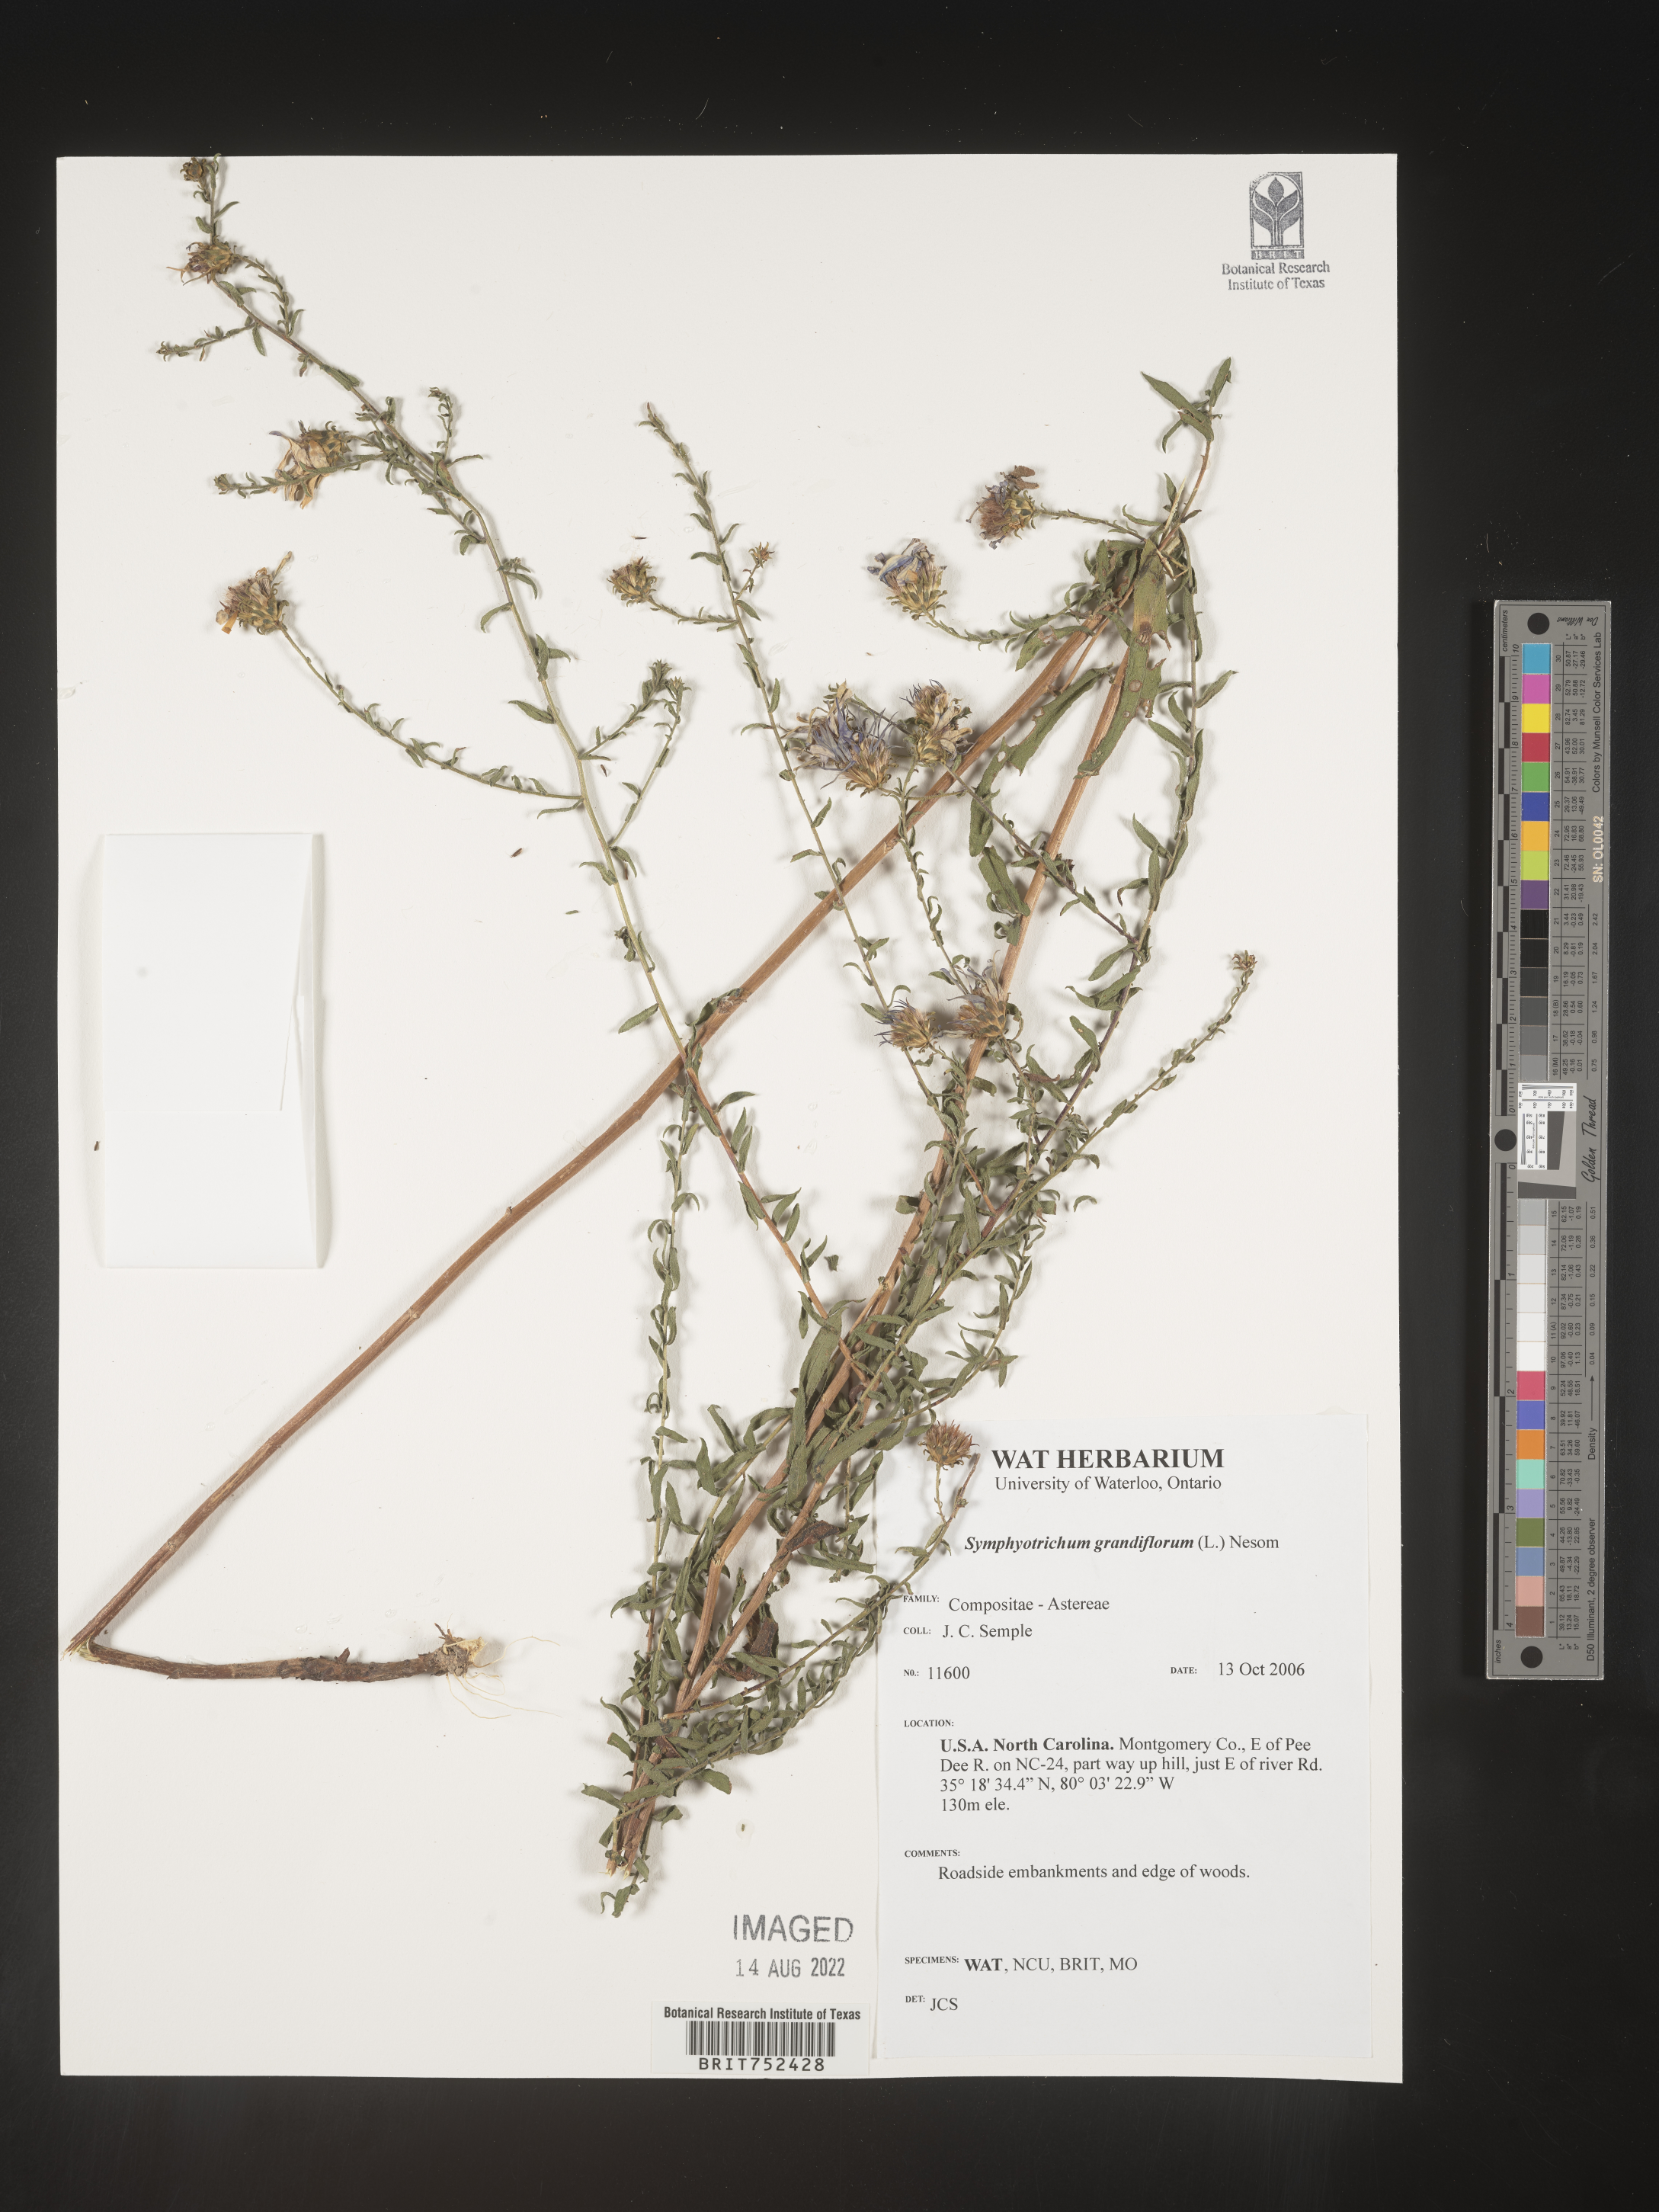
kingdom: Plantae
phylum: Tracheophyta
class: Magnoliopsida
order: Asterales
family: Asteraceae
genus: Symphyotrichum
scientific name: Symphyotrichum grandiflorum
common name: Big-head aster
